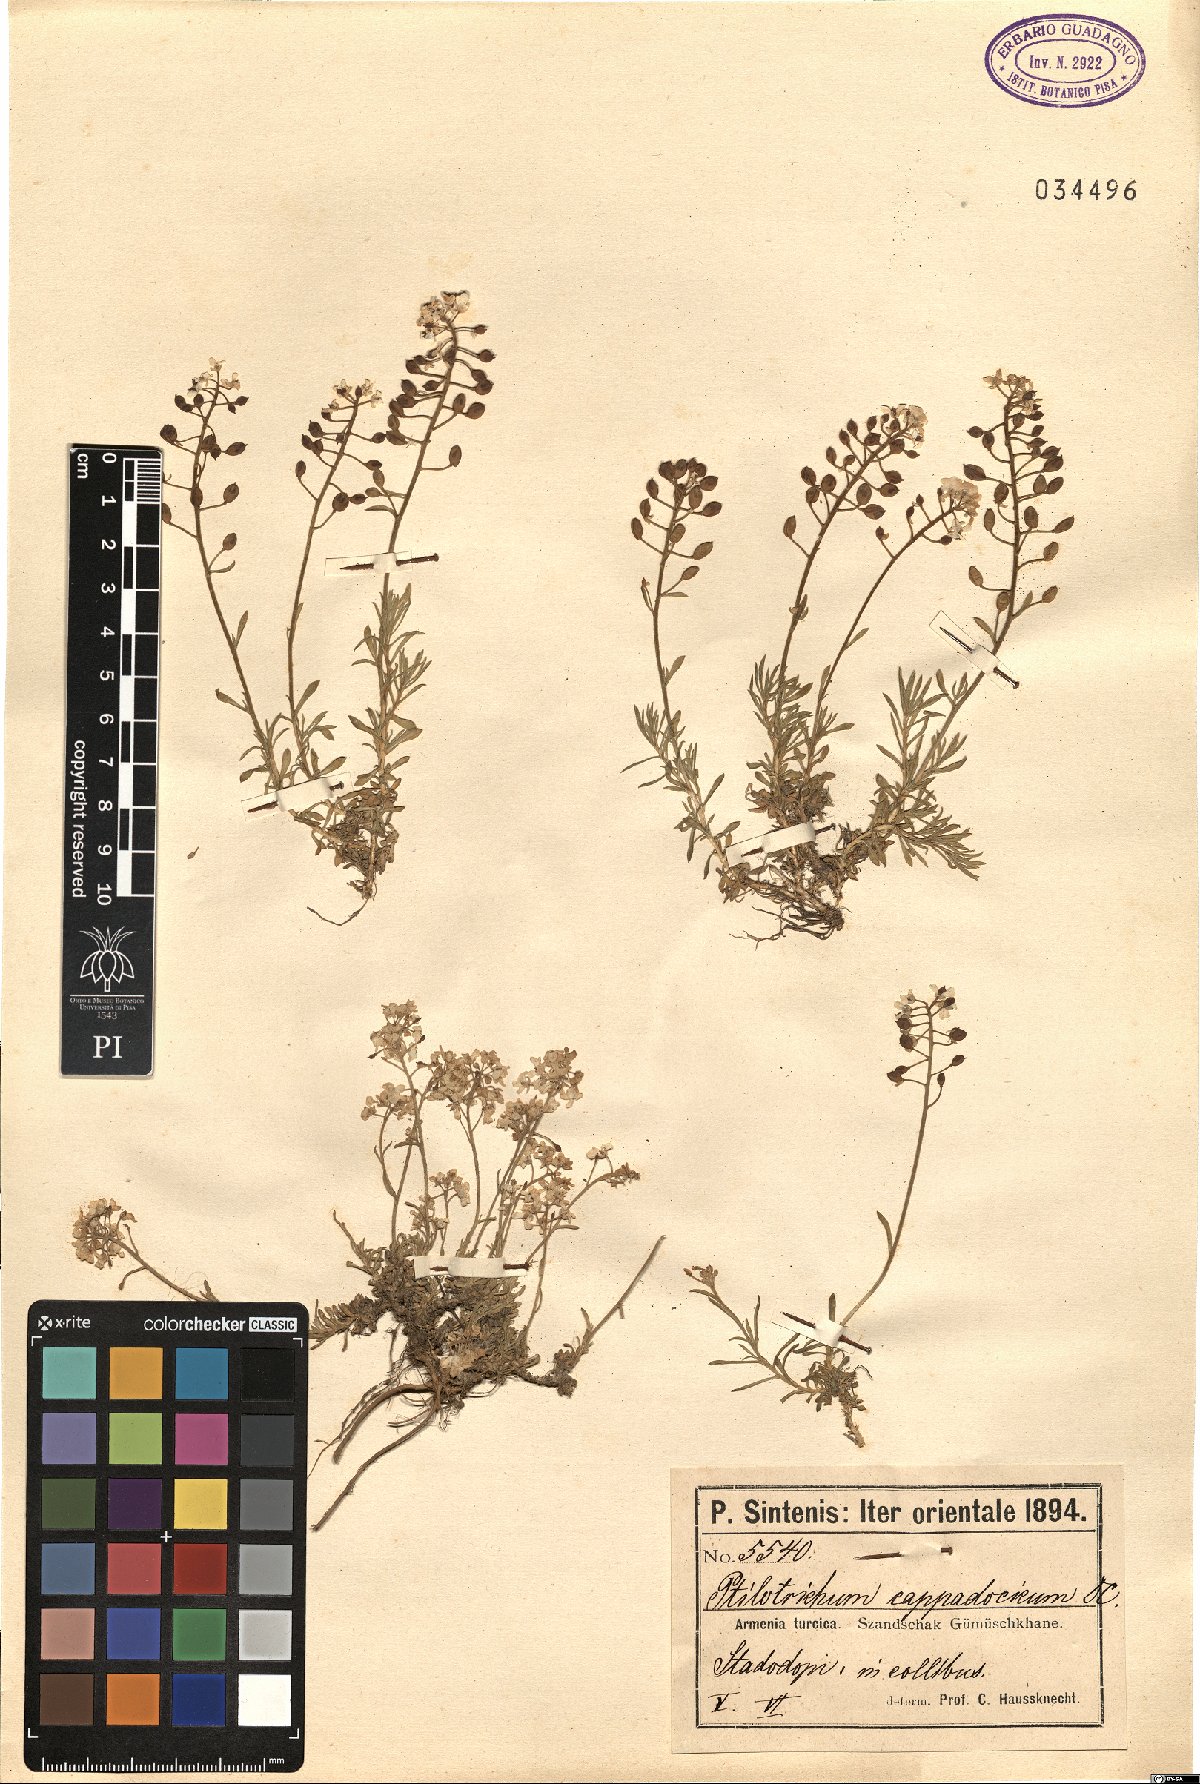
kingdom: Plantae
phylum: Tracheophyta
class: Magnoliopsida
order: Brassicales
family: Brassicaceae
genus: Bornmuellera
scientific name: Bornmuellera cappadocica
